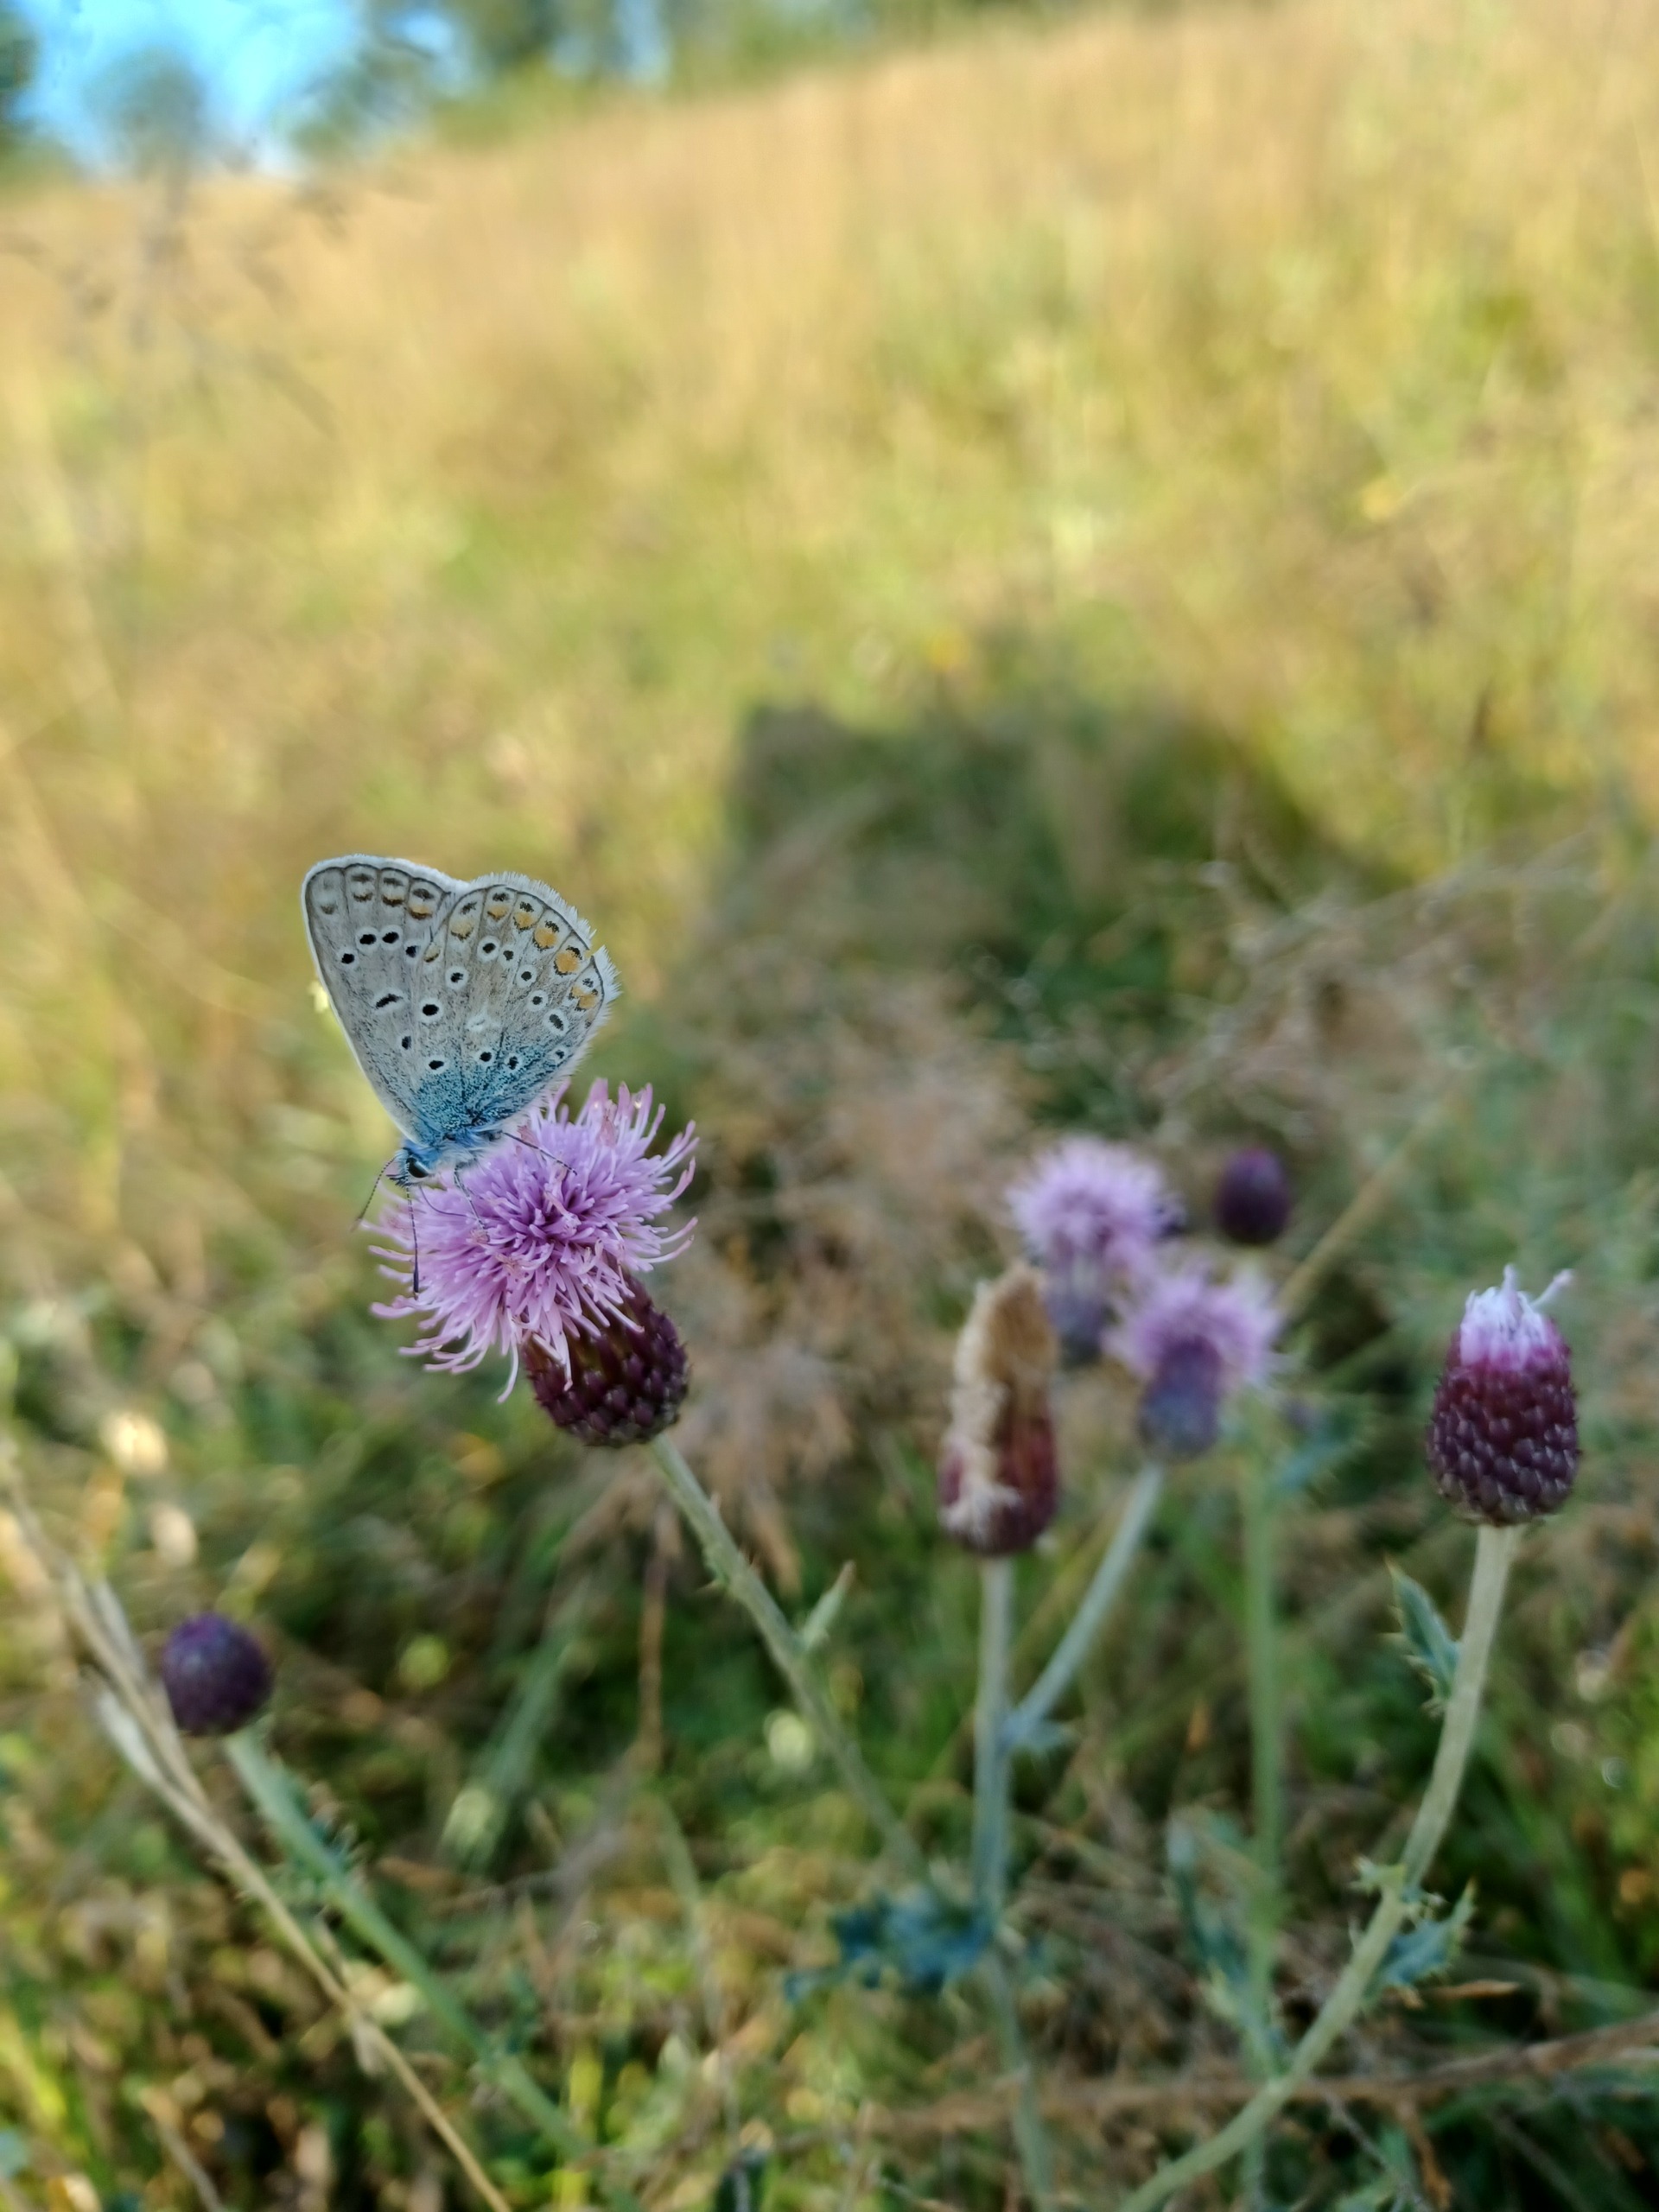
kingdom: Animalia
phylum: Arthropoda
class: Insecta
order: Lepidoptera
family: Lycaenidae
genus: Polyommatus
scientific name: Polyommatus icarus
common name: Almindelig blåfugl
